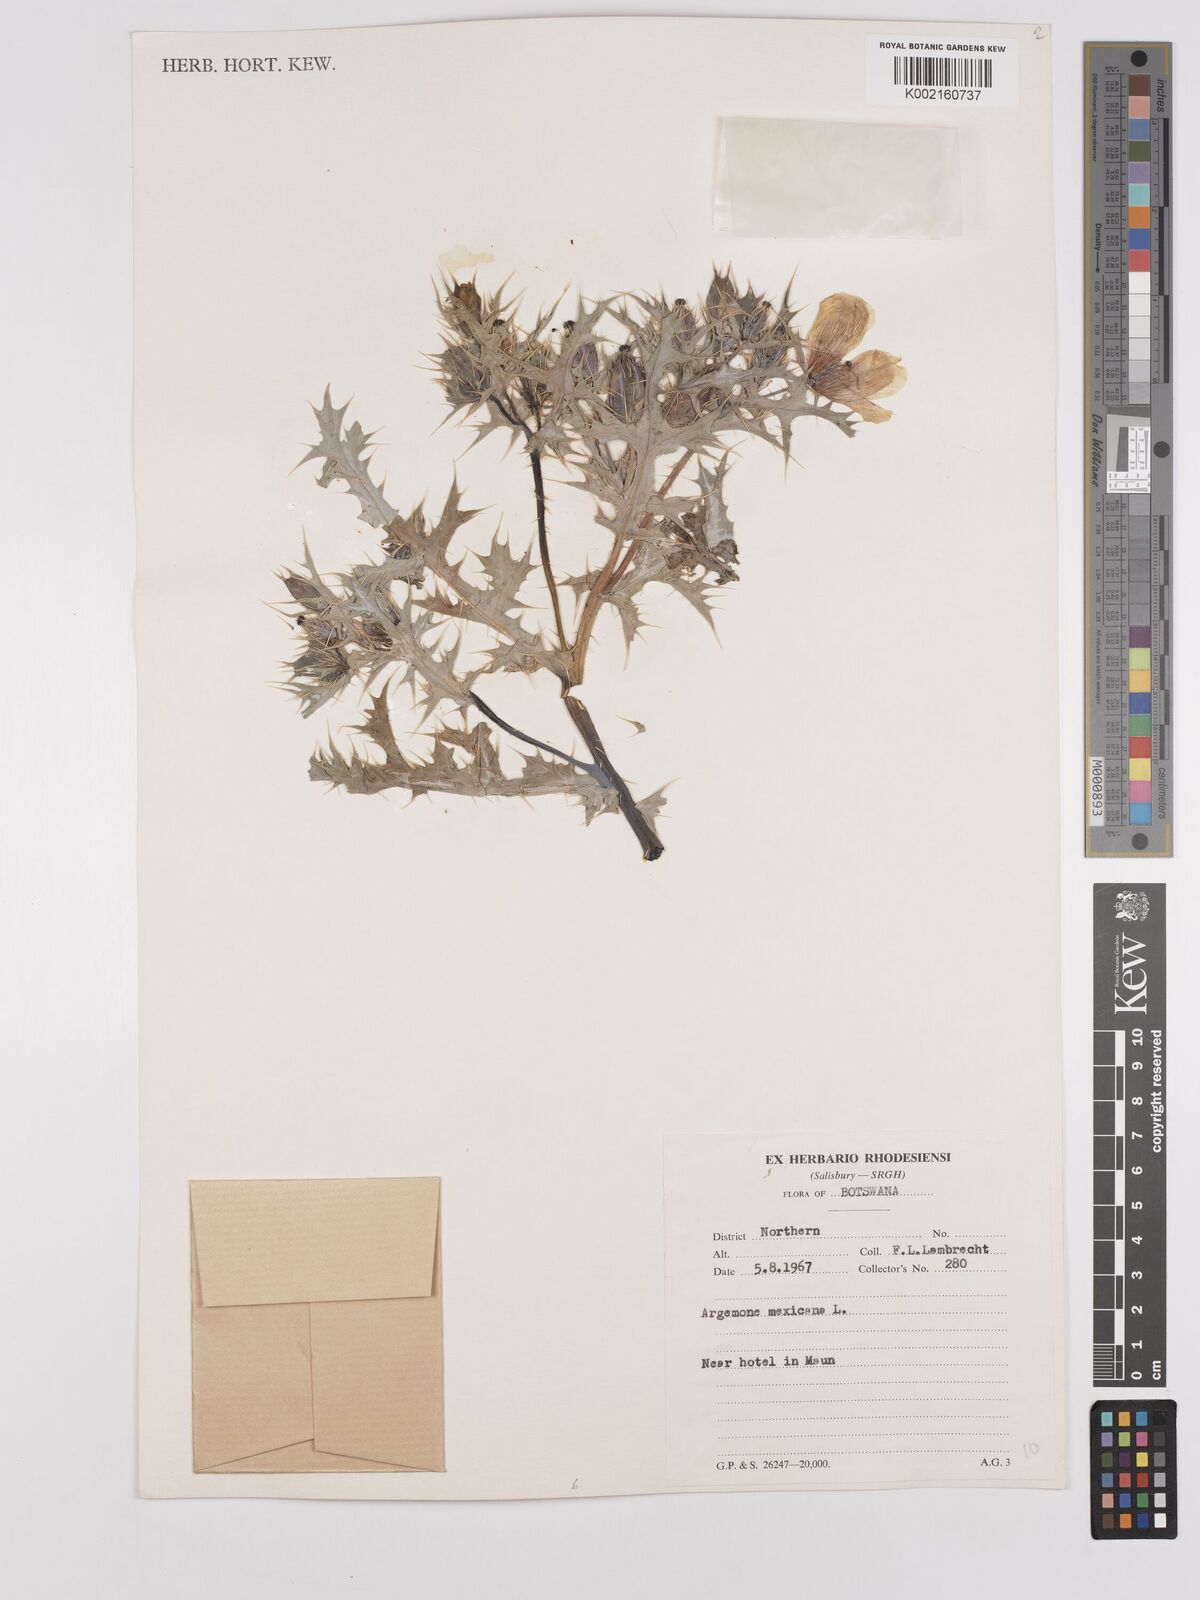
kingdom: Plantae
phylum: Tracheophyta
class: Magnoliopsida
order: Ranunculales
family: Papaveraceae
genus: Argemone
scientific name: Argemone mexicana
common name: Mexican poppy
